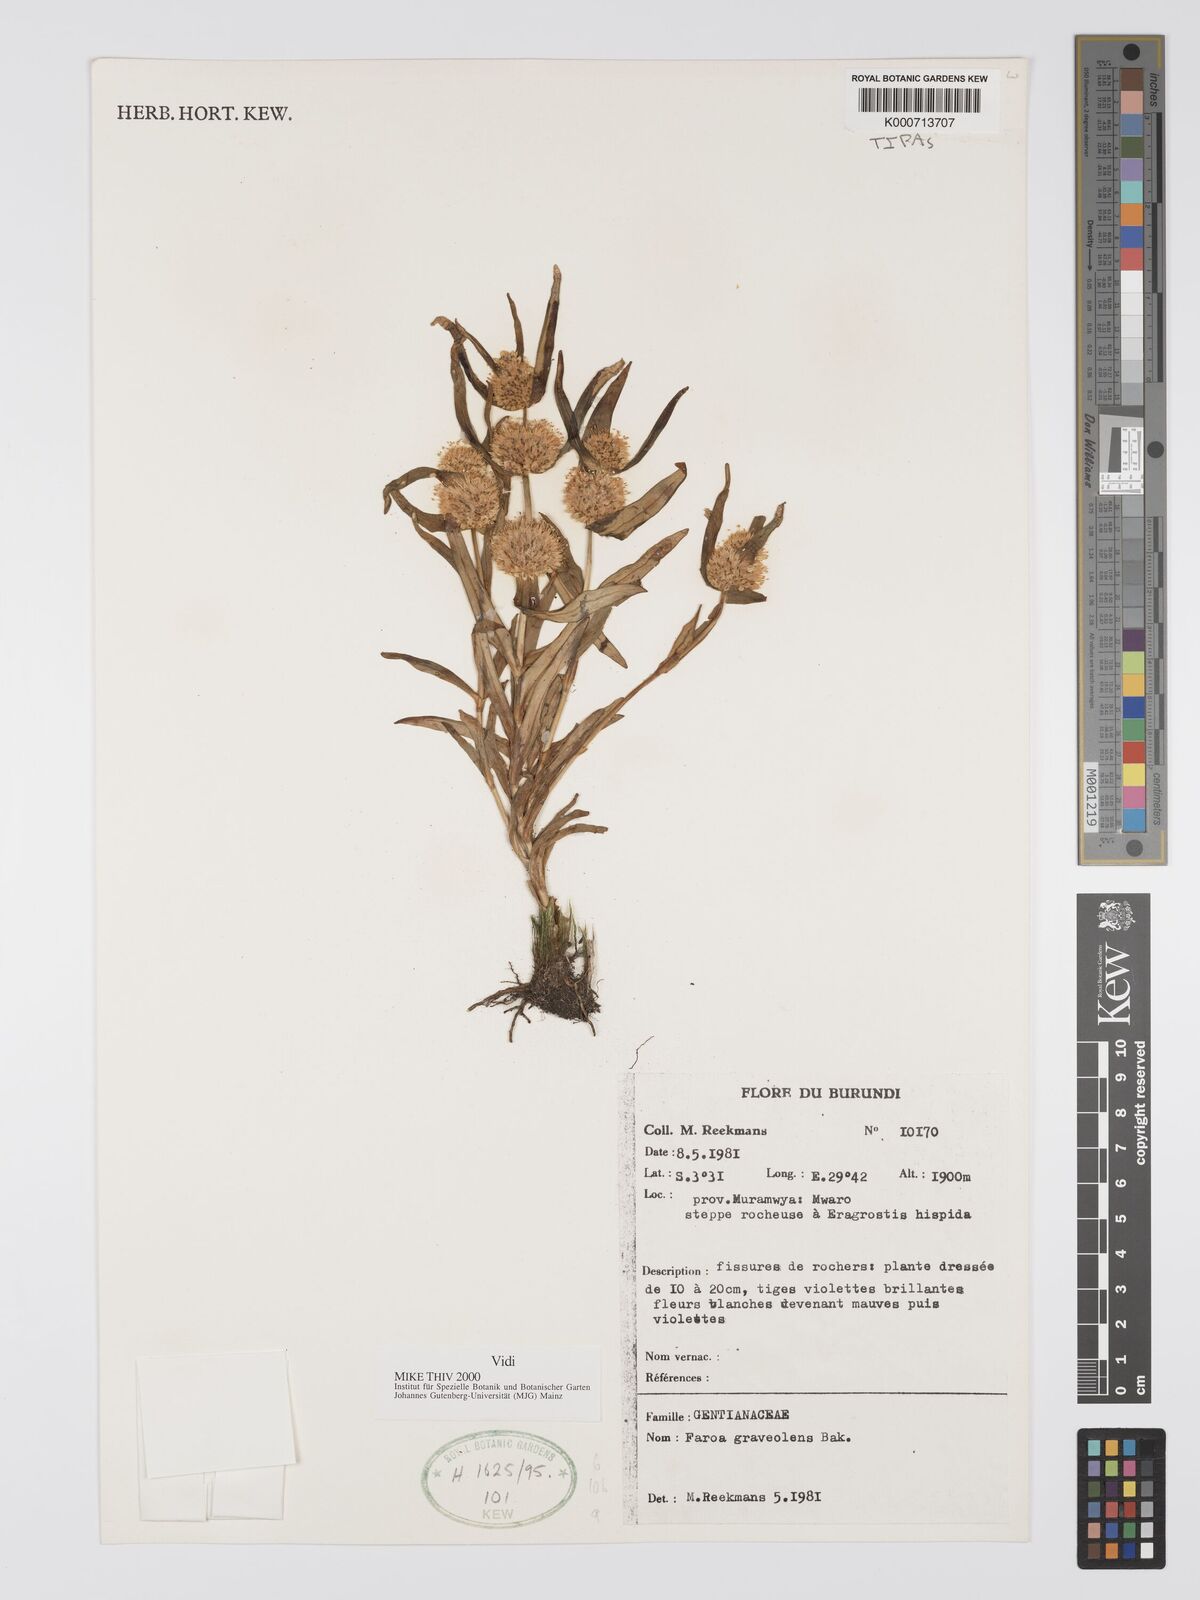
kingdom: Plantae
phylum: Tracheophyta
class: Magnoliopsida
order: Gentianales
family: Gentianaceae
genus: Faroa
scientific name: Faroa graveolens
